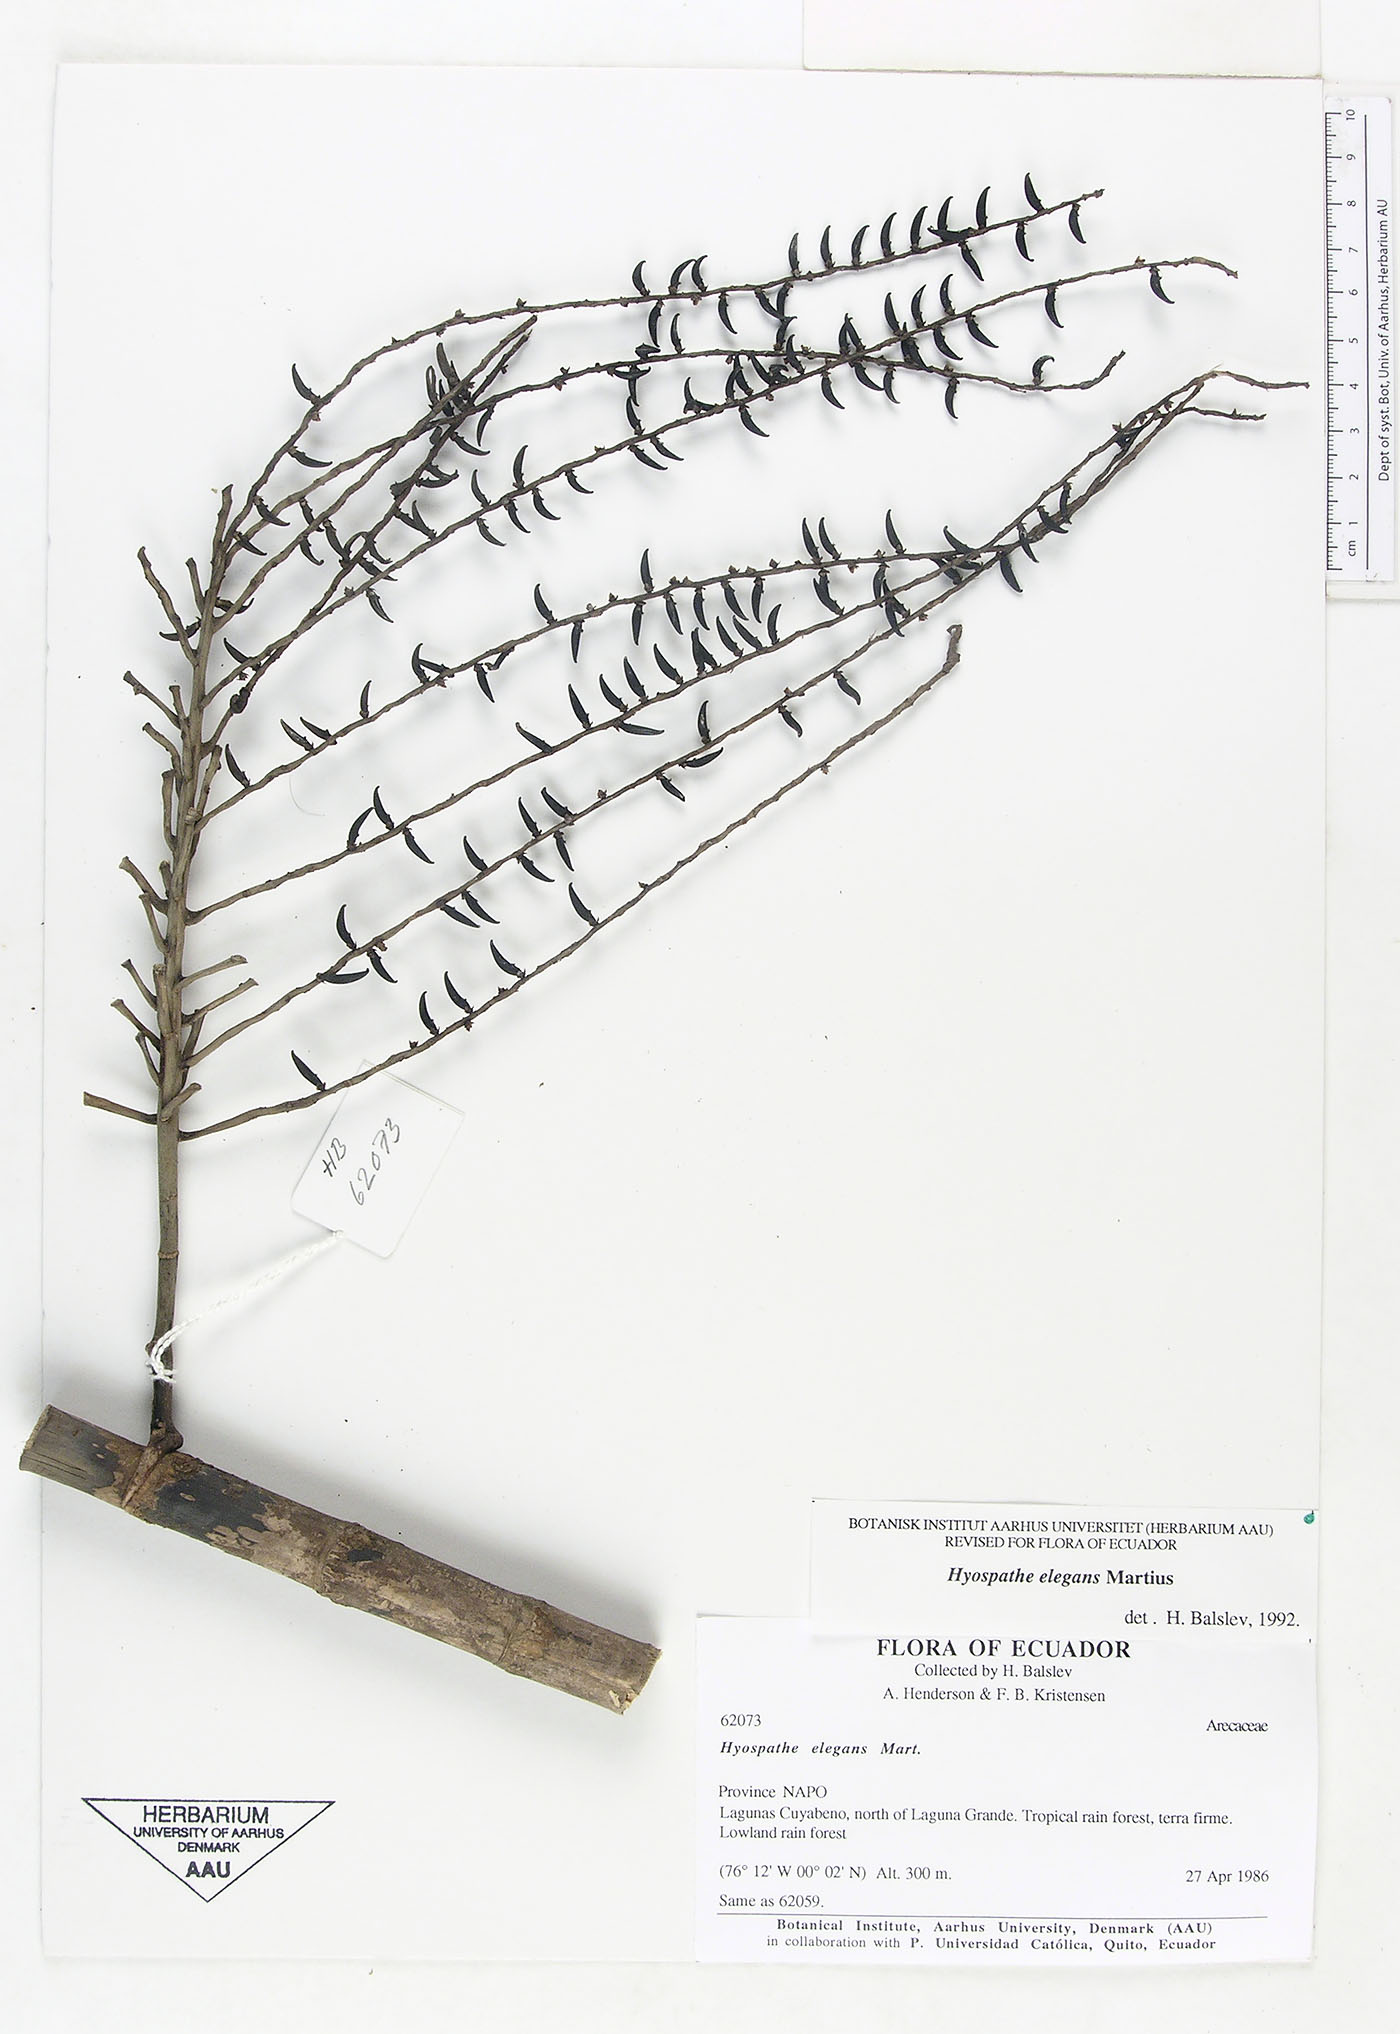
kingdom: Plantae
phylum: Tracheophyta
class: Liliopsida
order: Arecales
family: Arecaceae
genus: Hyospathe
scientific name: Hyospathe elegans
